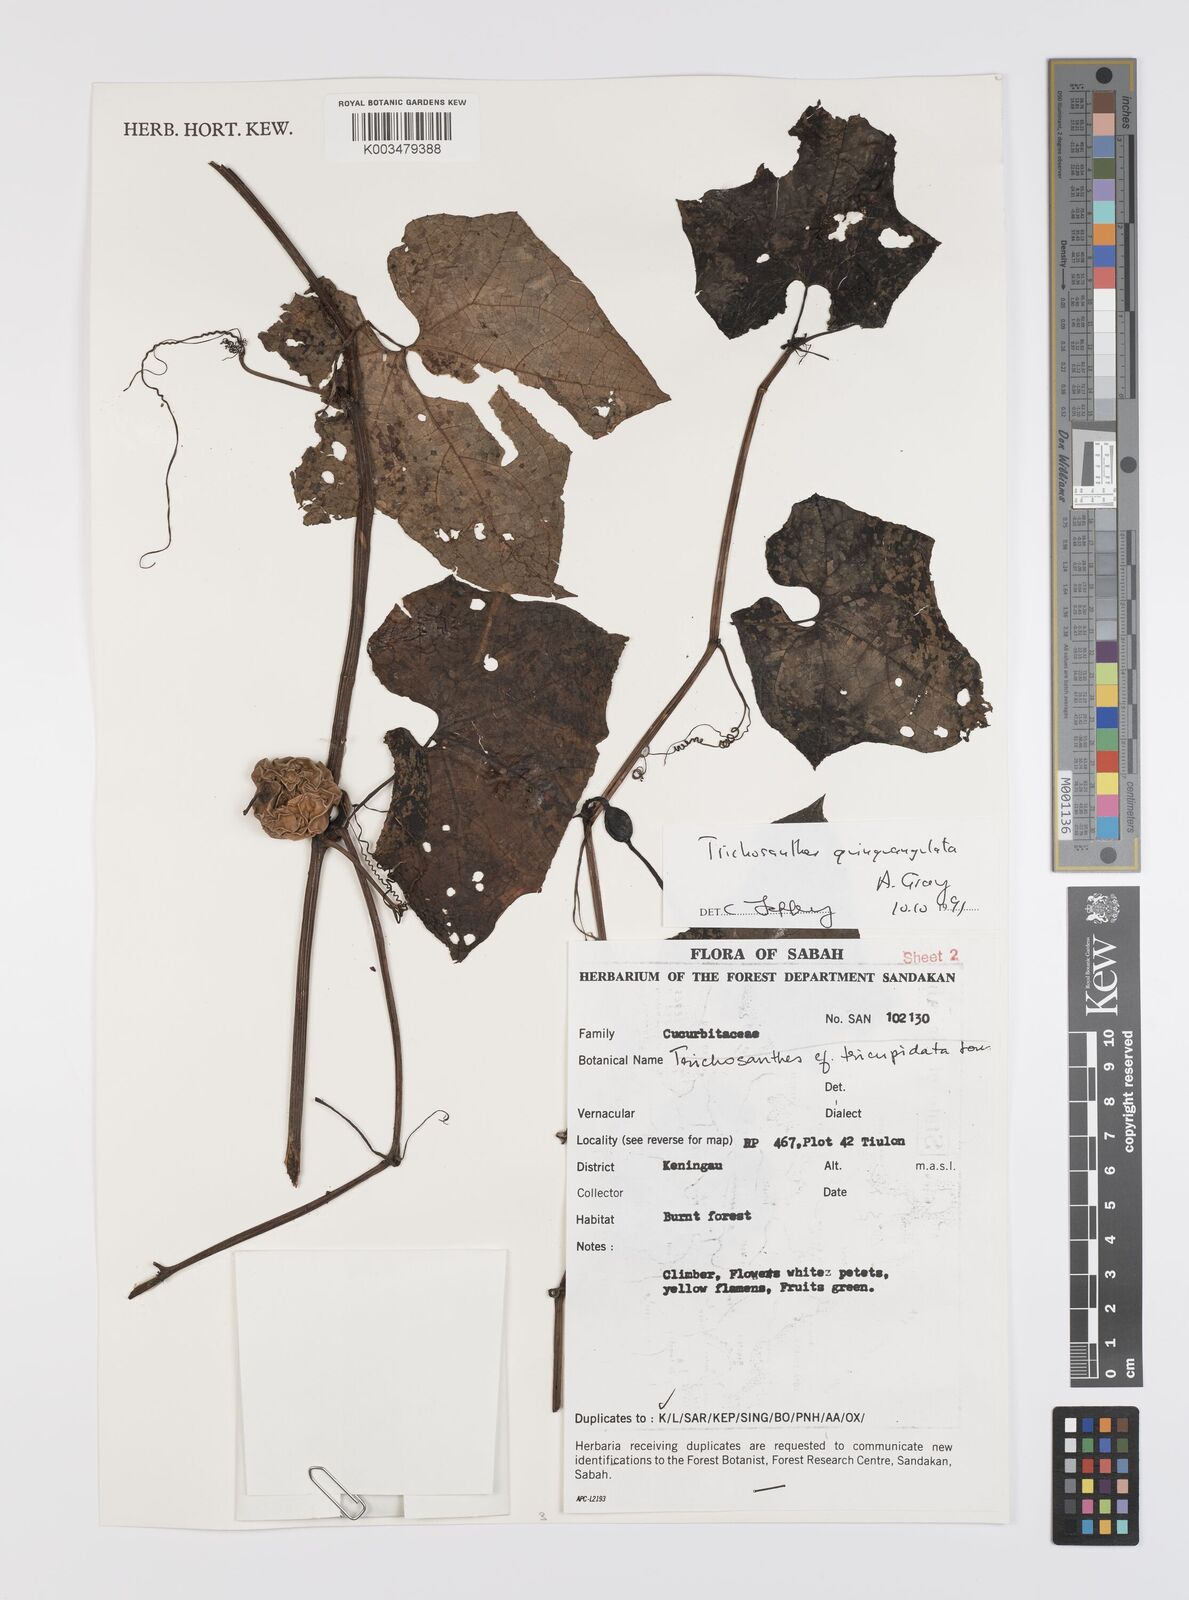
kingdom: Plantae
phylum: Tracheophyta
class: Magnoliopsida
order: Cucurbitales
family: Cucurbitaceae
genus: Trichosanthes
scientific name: Trichosanthes tricuspidata
